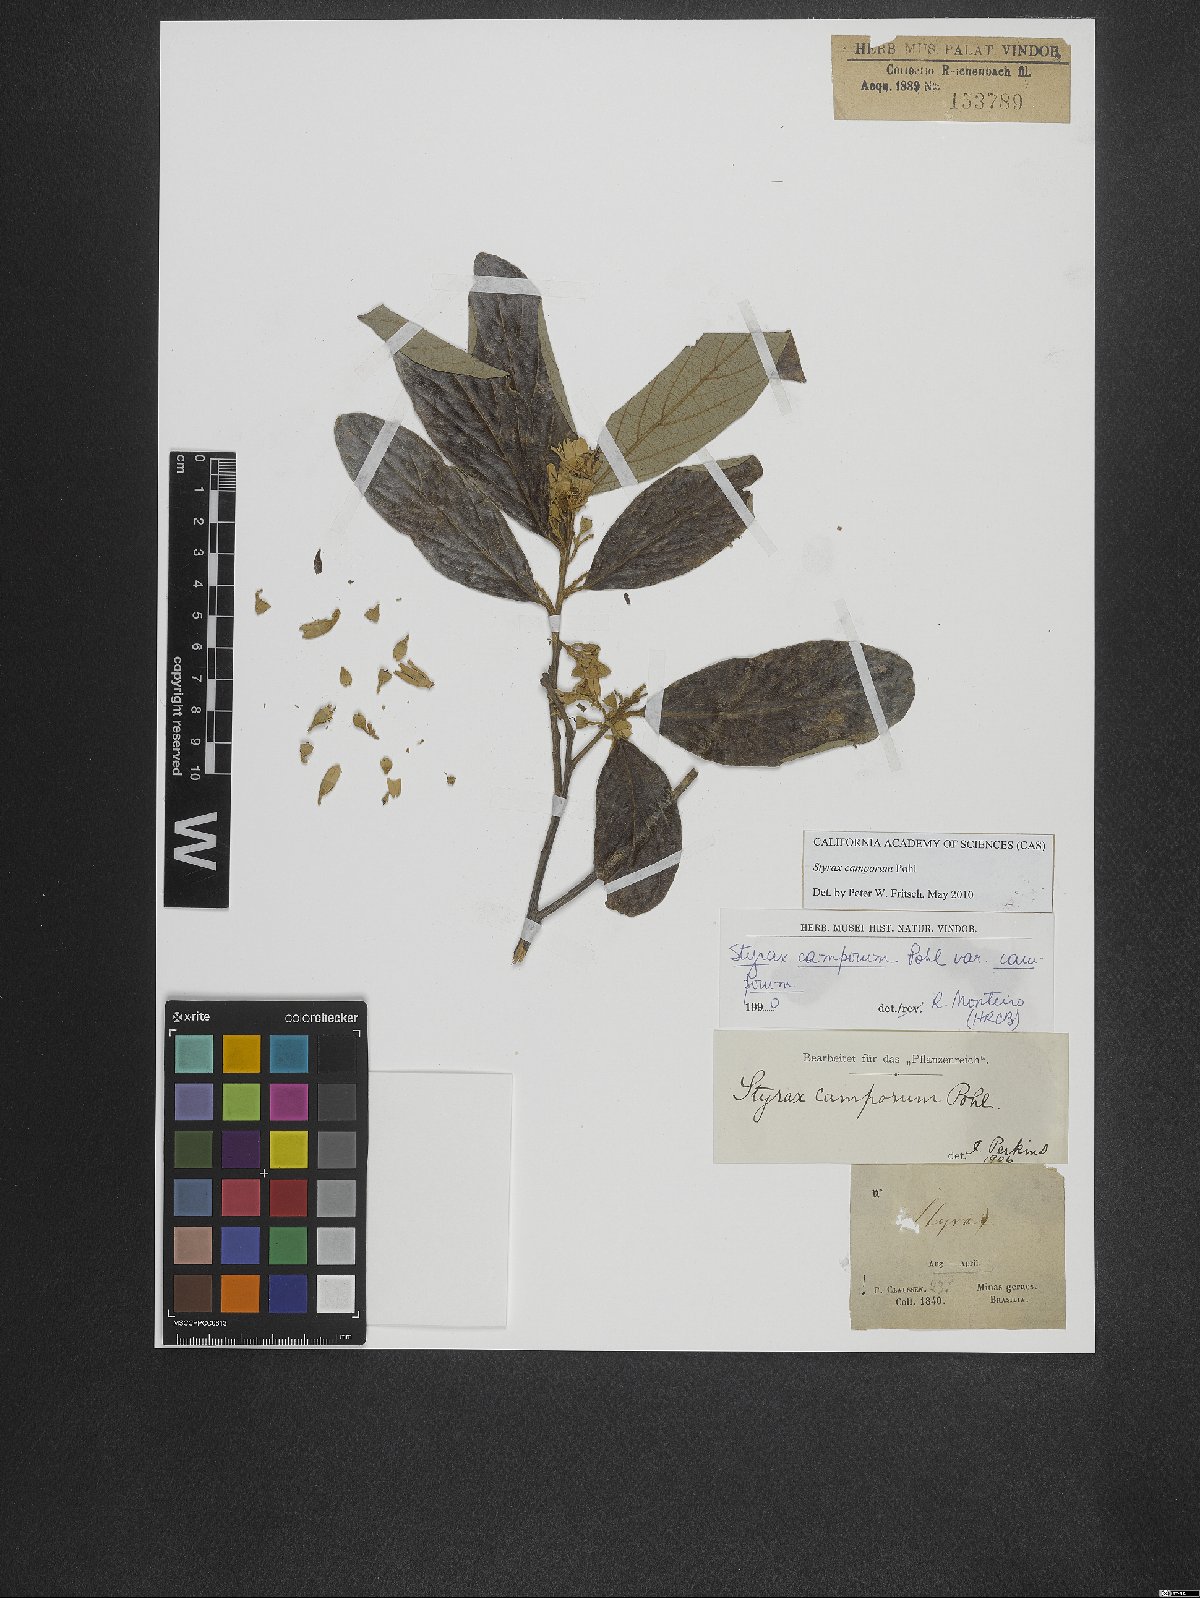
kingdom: Plantae
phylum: Tracheophyta
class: Magnoliopsida
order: Ericales
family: Styracaceae
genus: Styrax
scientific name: Styrax camporum
